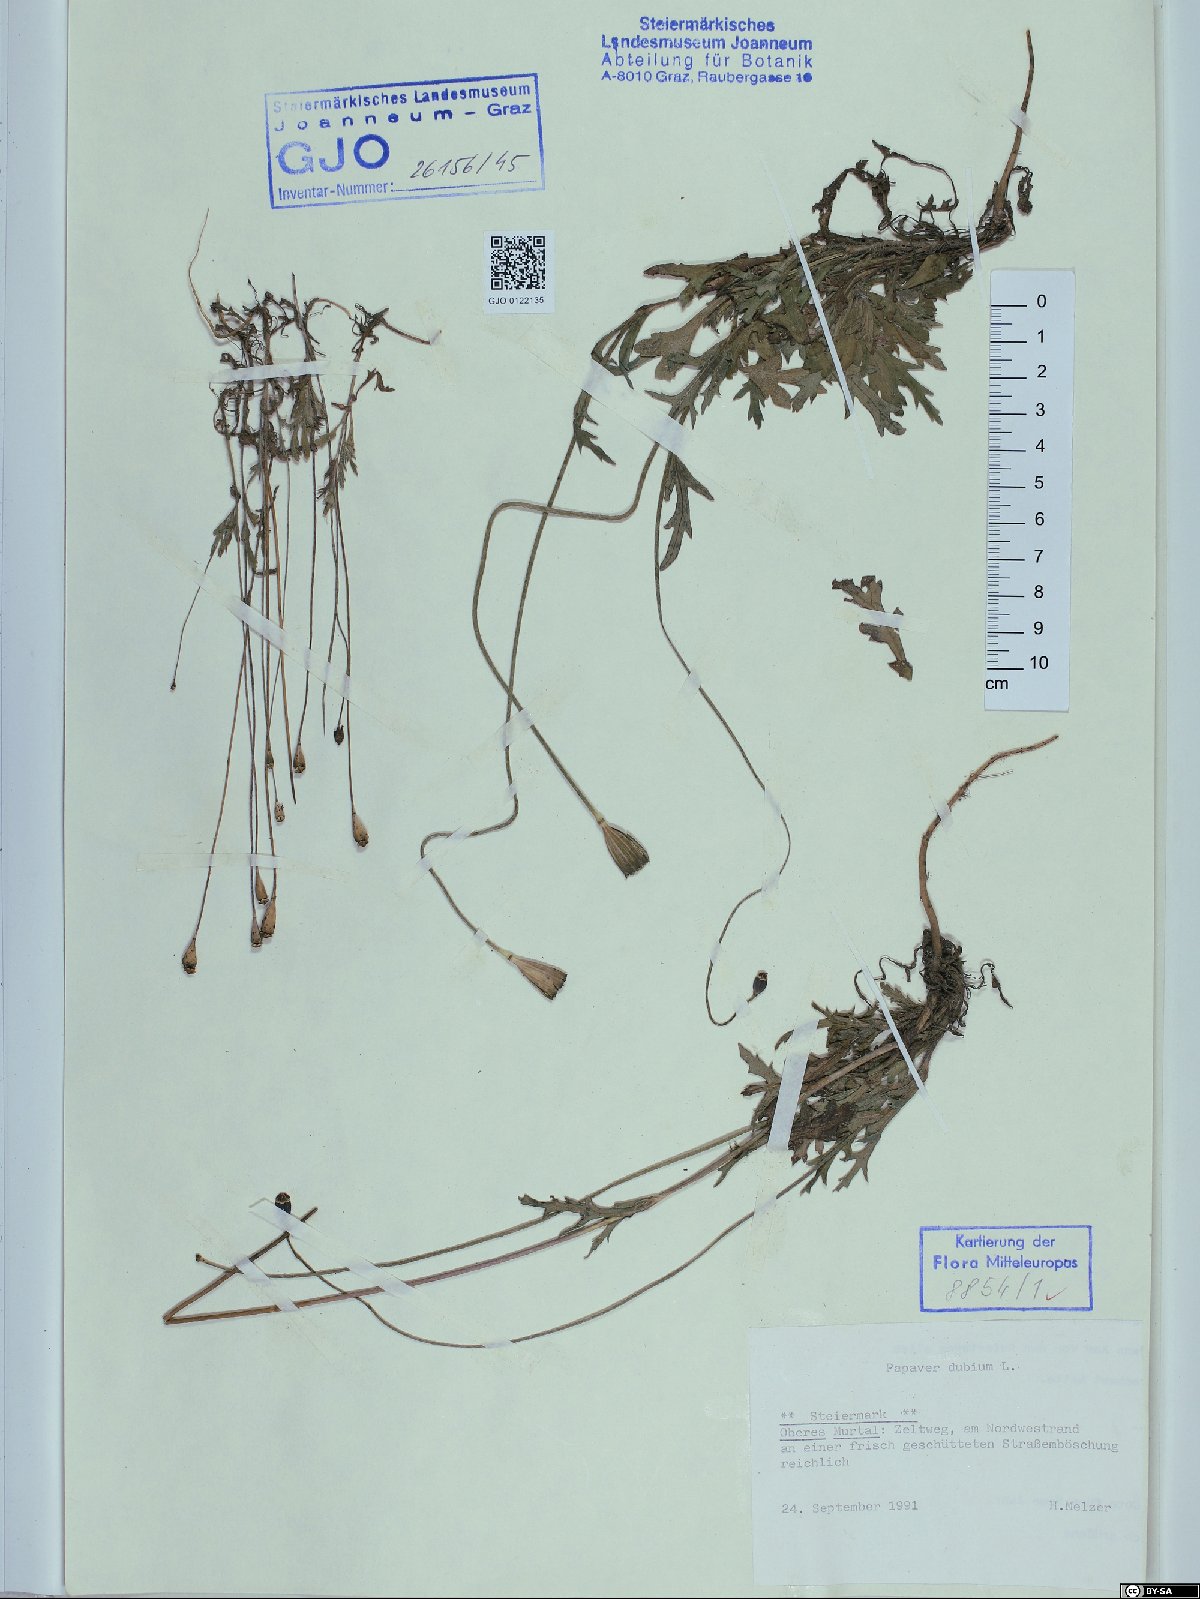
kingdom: Plantae
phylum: Tracheophyta
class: Magnoliopsida
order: Ranunculales
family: Papaveraceae
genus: Papaver
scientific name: Papaver dubium
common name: Long-headed poppy
